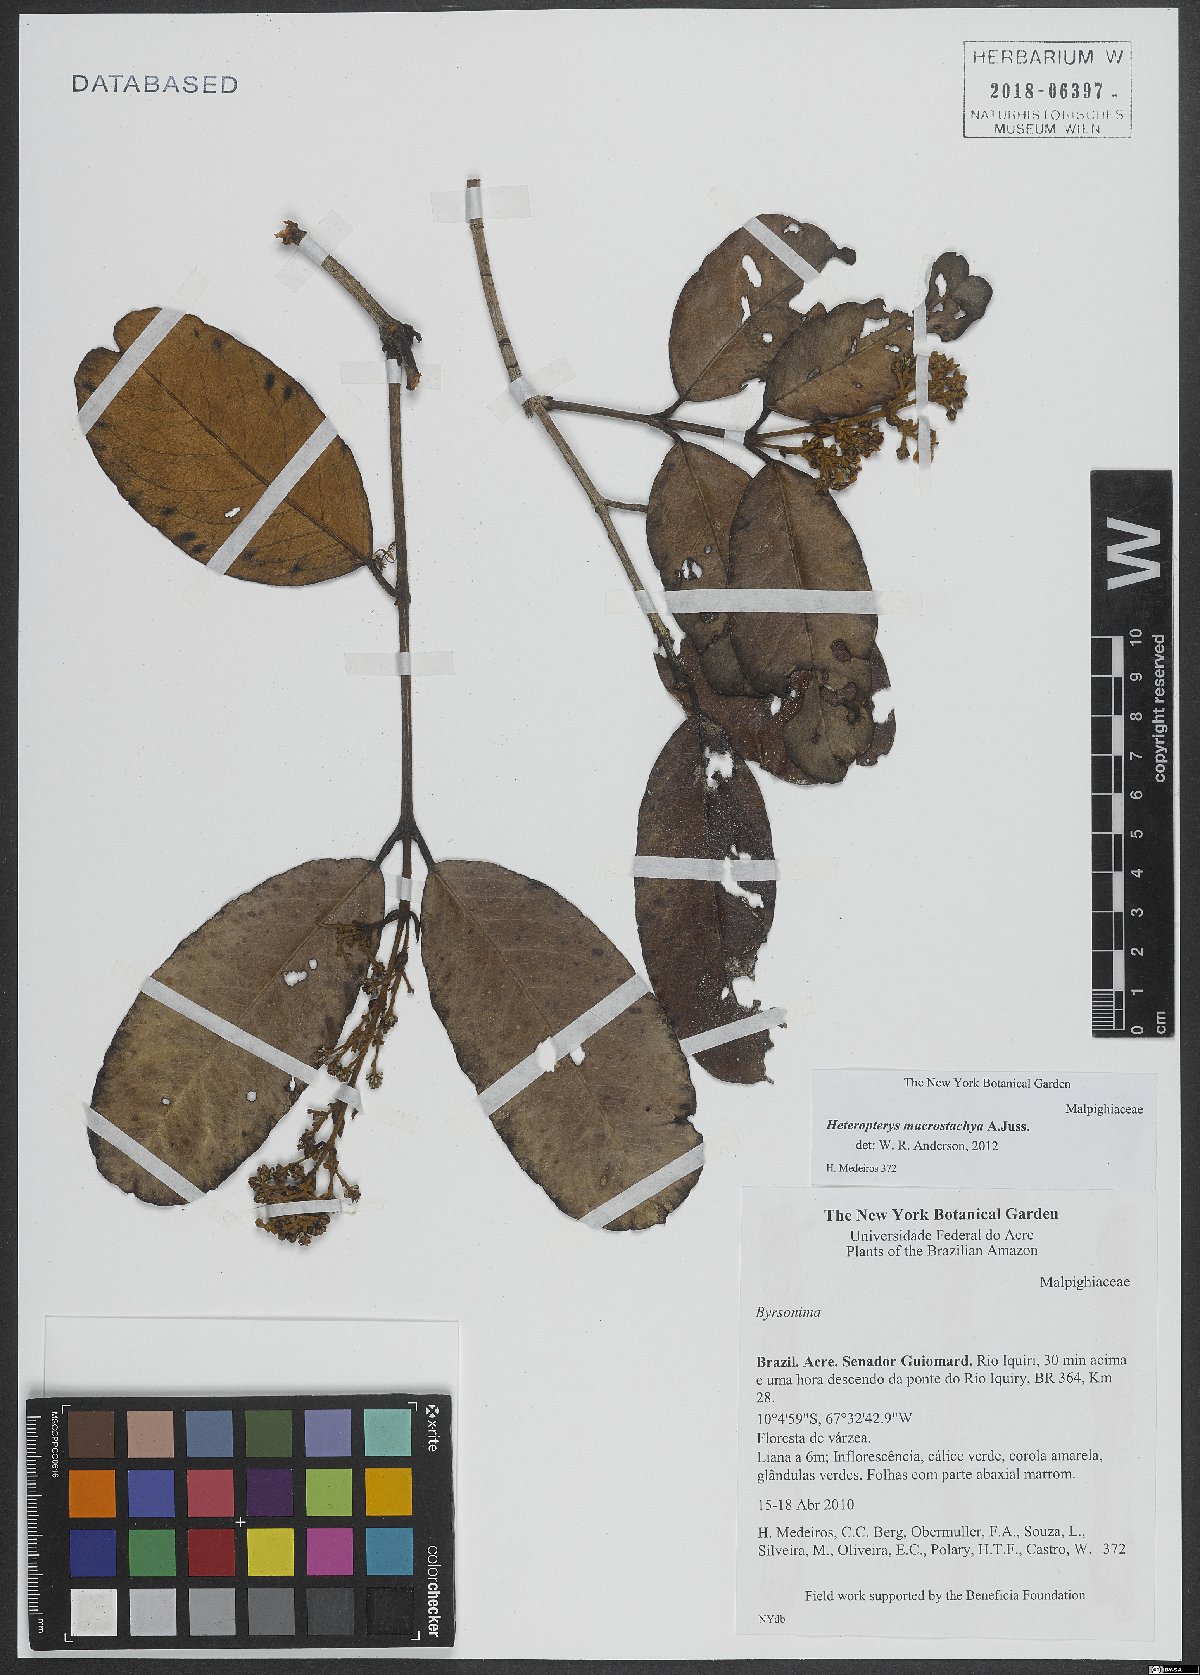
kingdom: Plantae
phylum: Tracheophyta
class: Magnoliopsida
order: Malpighiales
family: Malpighiaceae
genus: Heteropterys
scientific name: Heteropterys macrostachya
